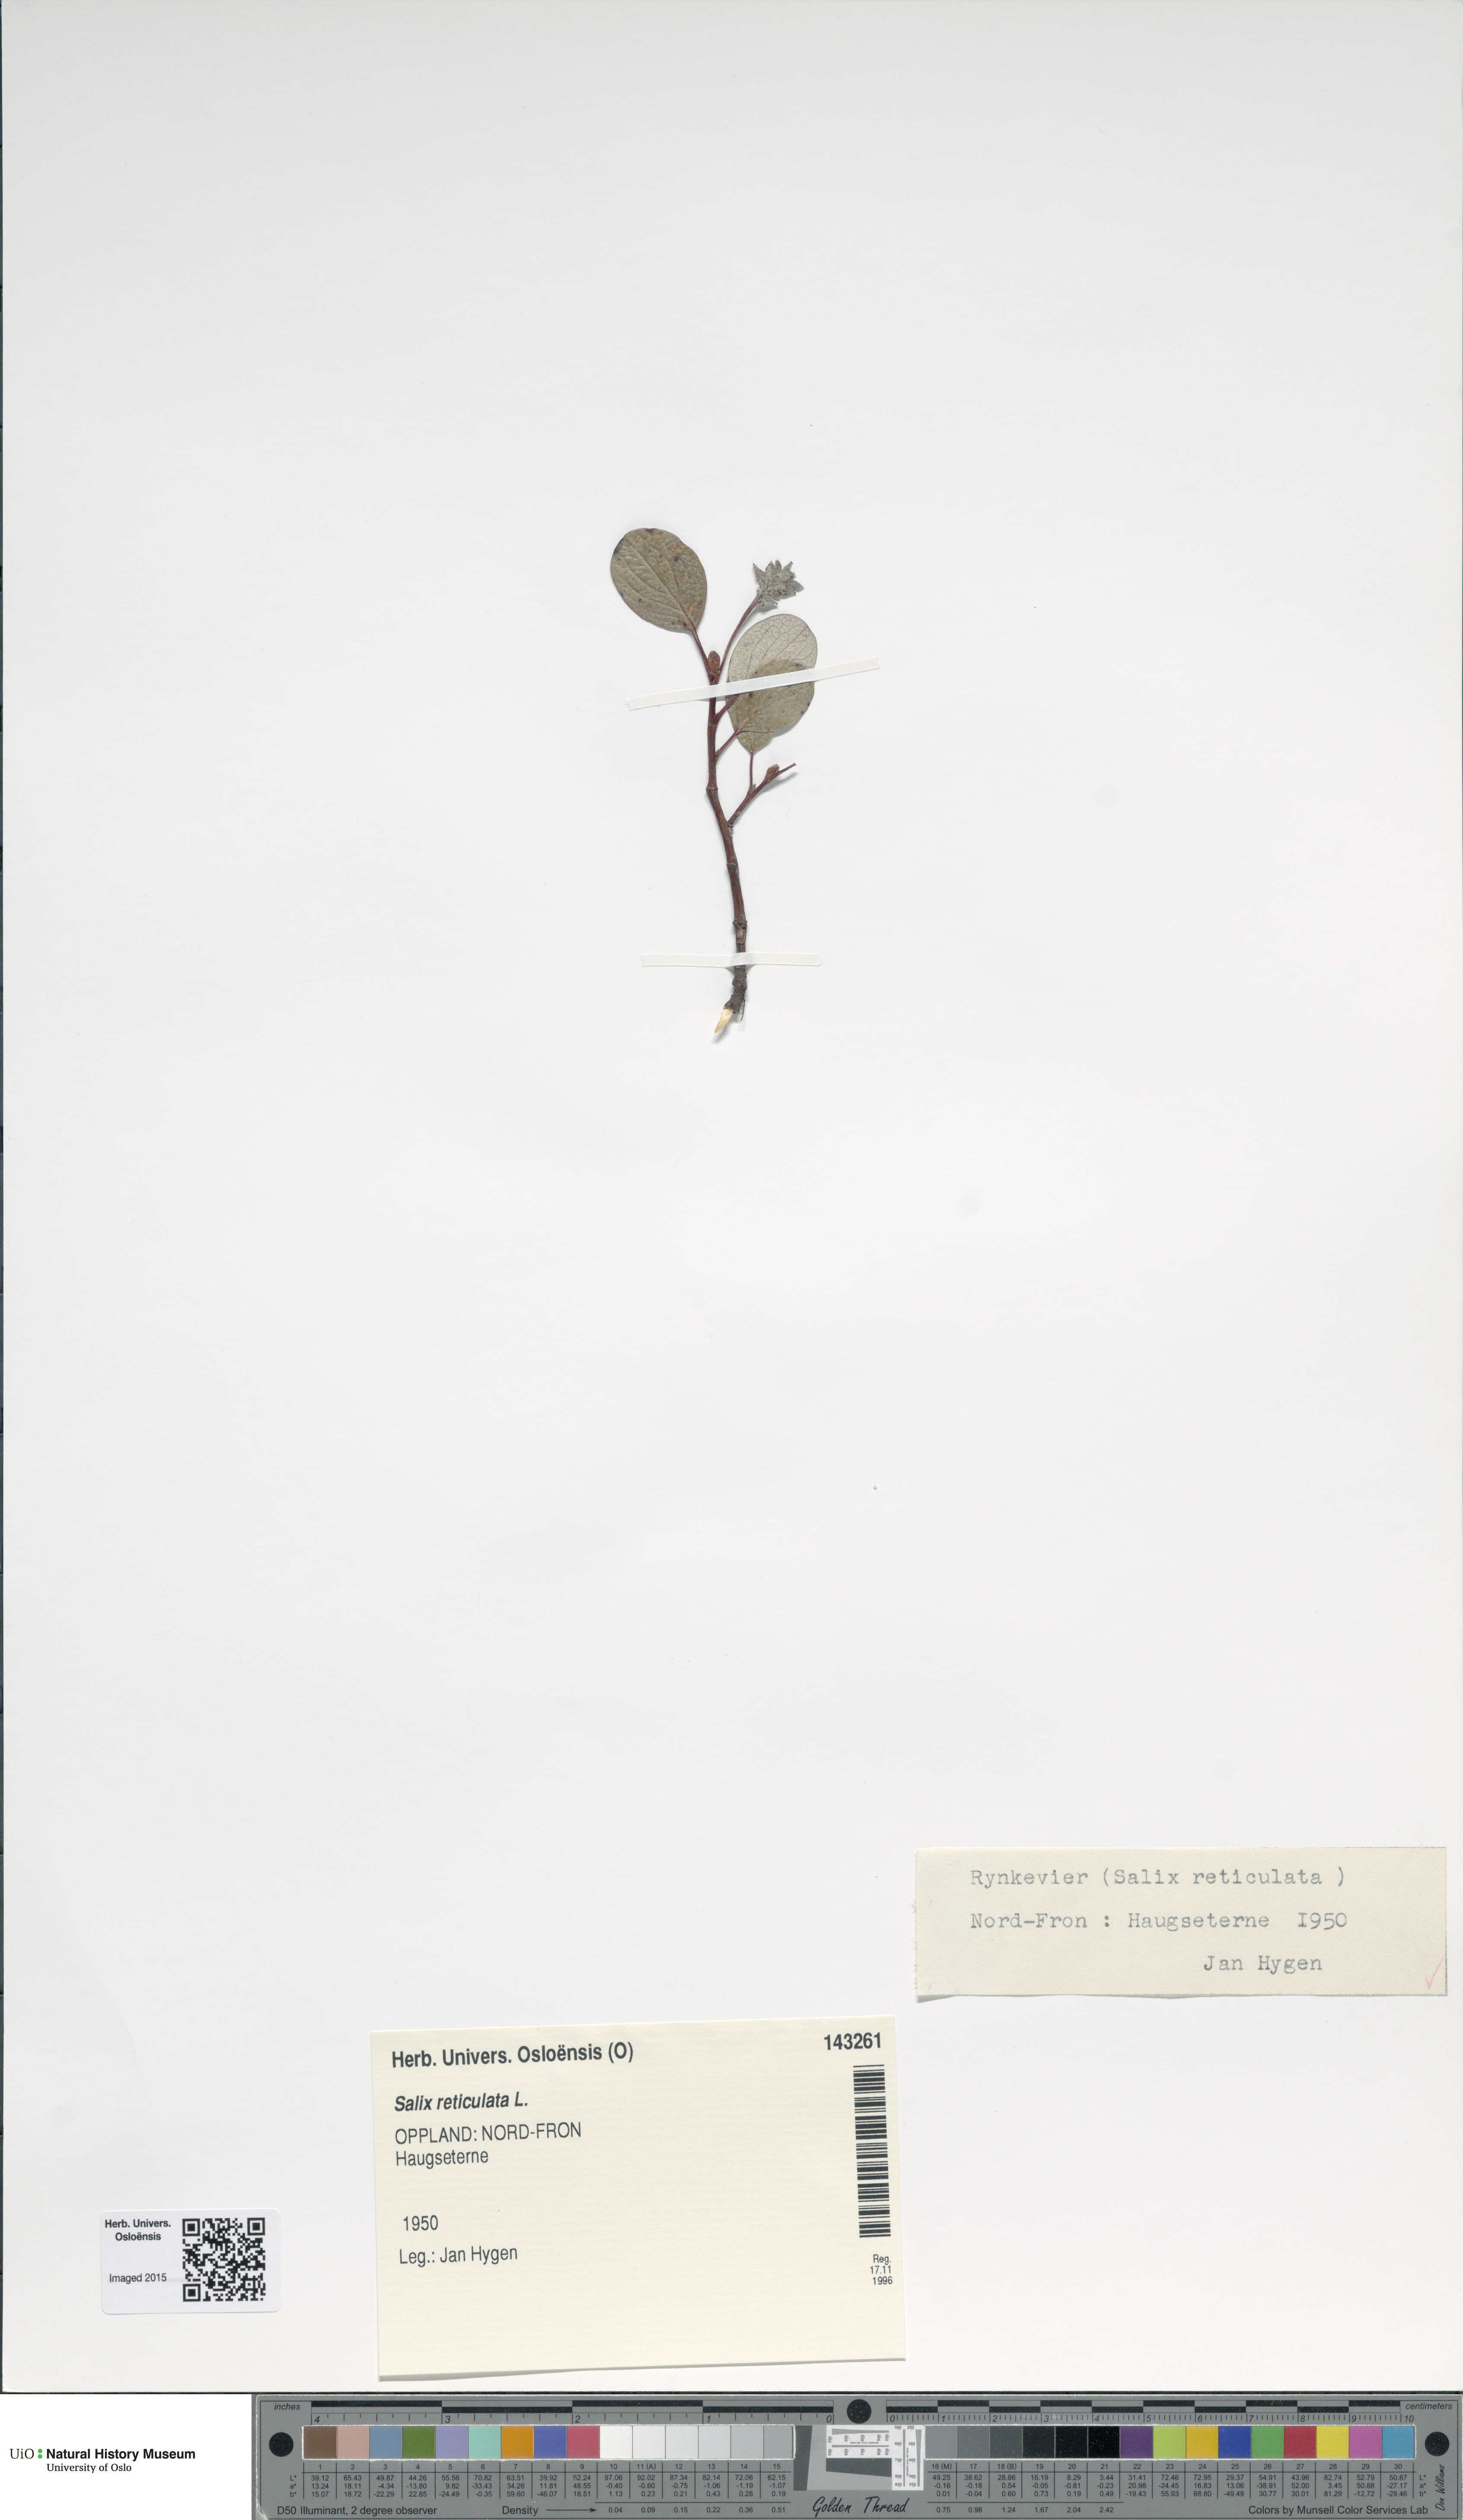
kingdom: Plantae
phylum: Tracheophyta
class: Magnoliopsida
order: Malpighiales
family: Salicaceae
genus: Salix
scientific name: Salix reticulata
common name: Net-leaved willow
